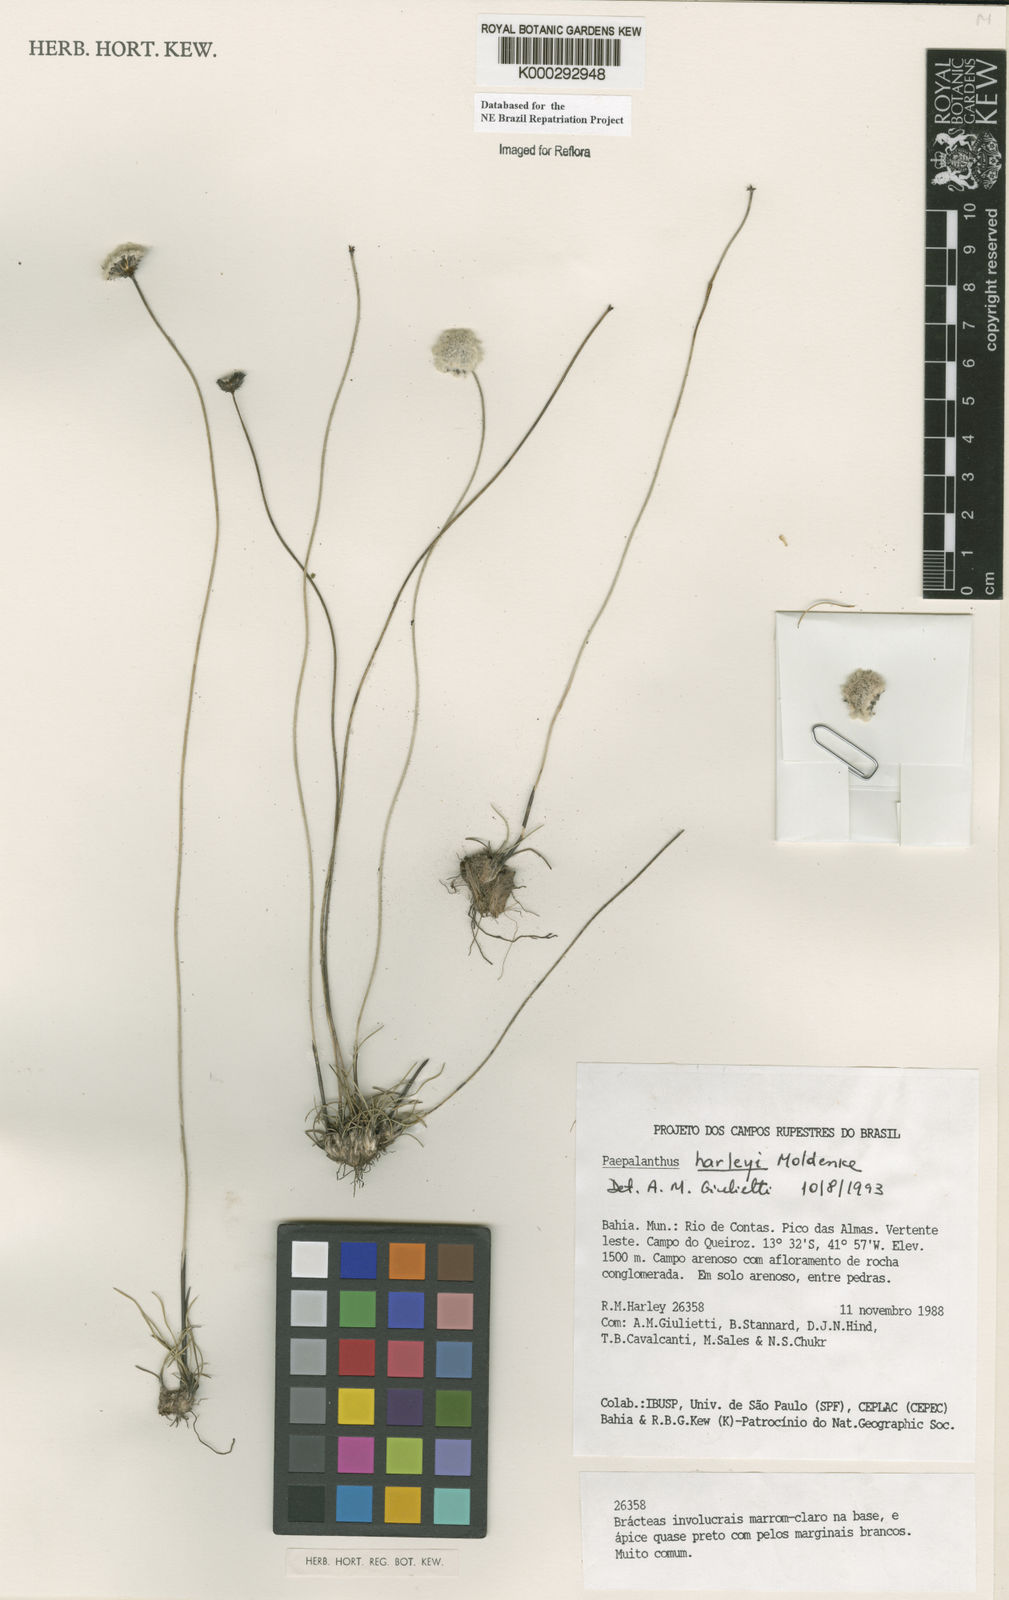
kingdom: Plantae
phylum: Tracheophyta
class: Liliopsida
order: Poales
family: Eriocaulaceae
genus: Paepalanthus
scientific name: Paepalanthus harleyi
